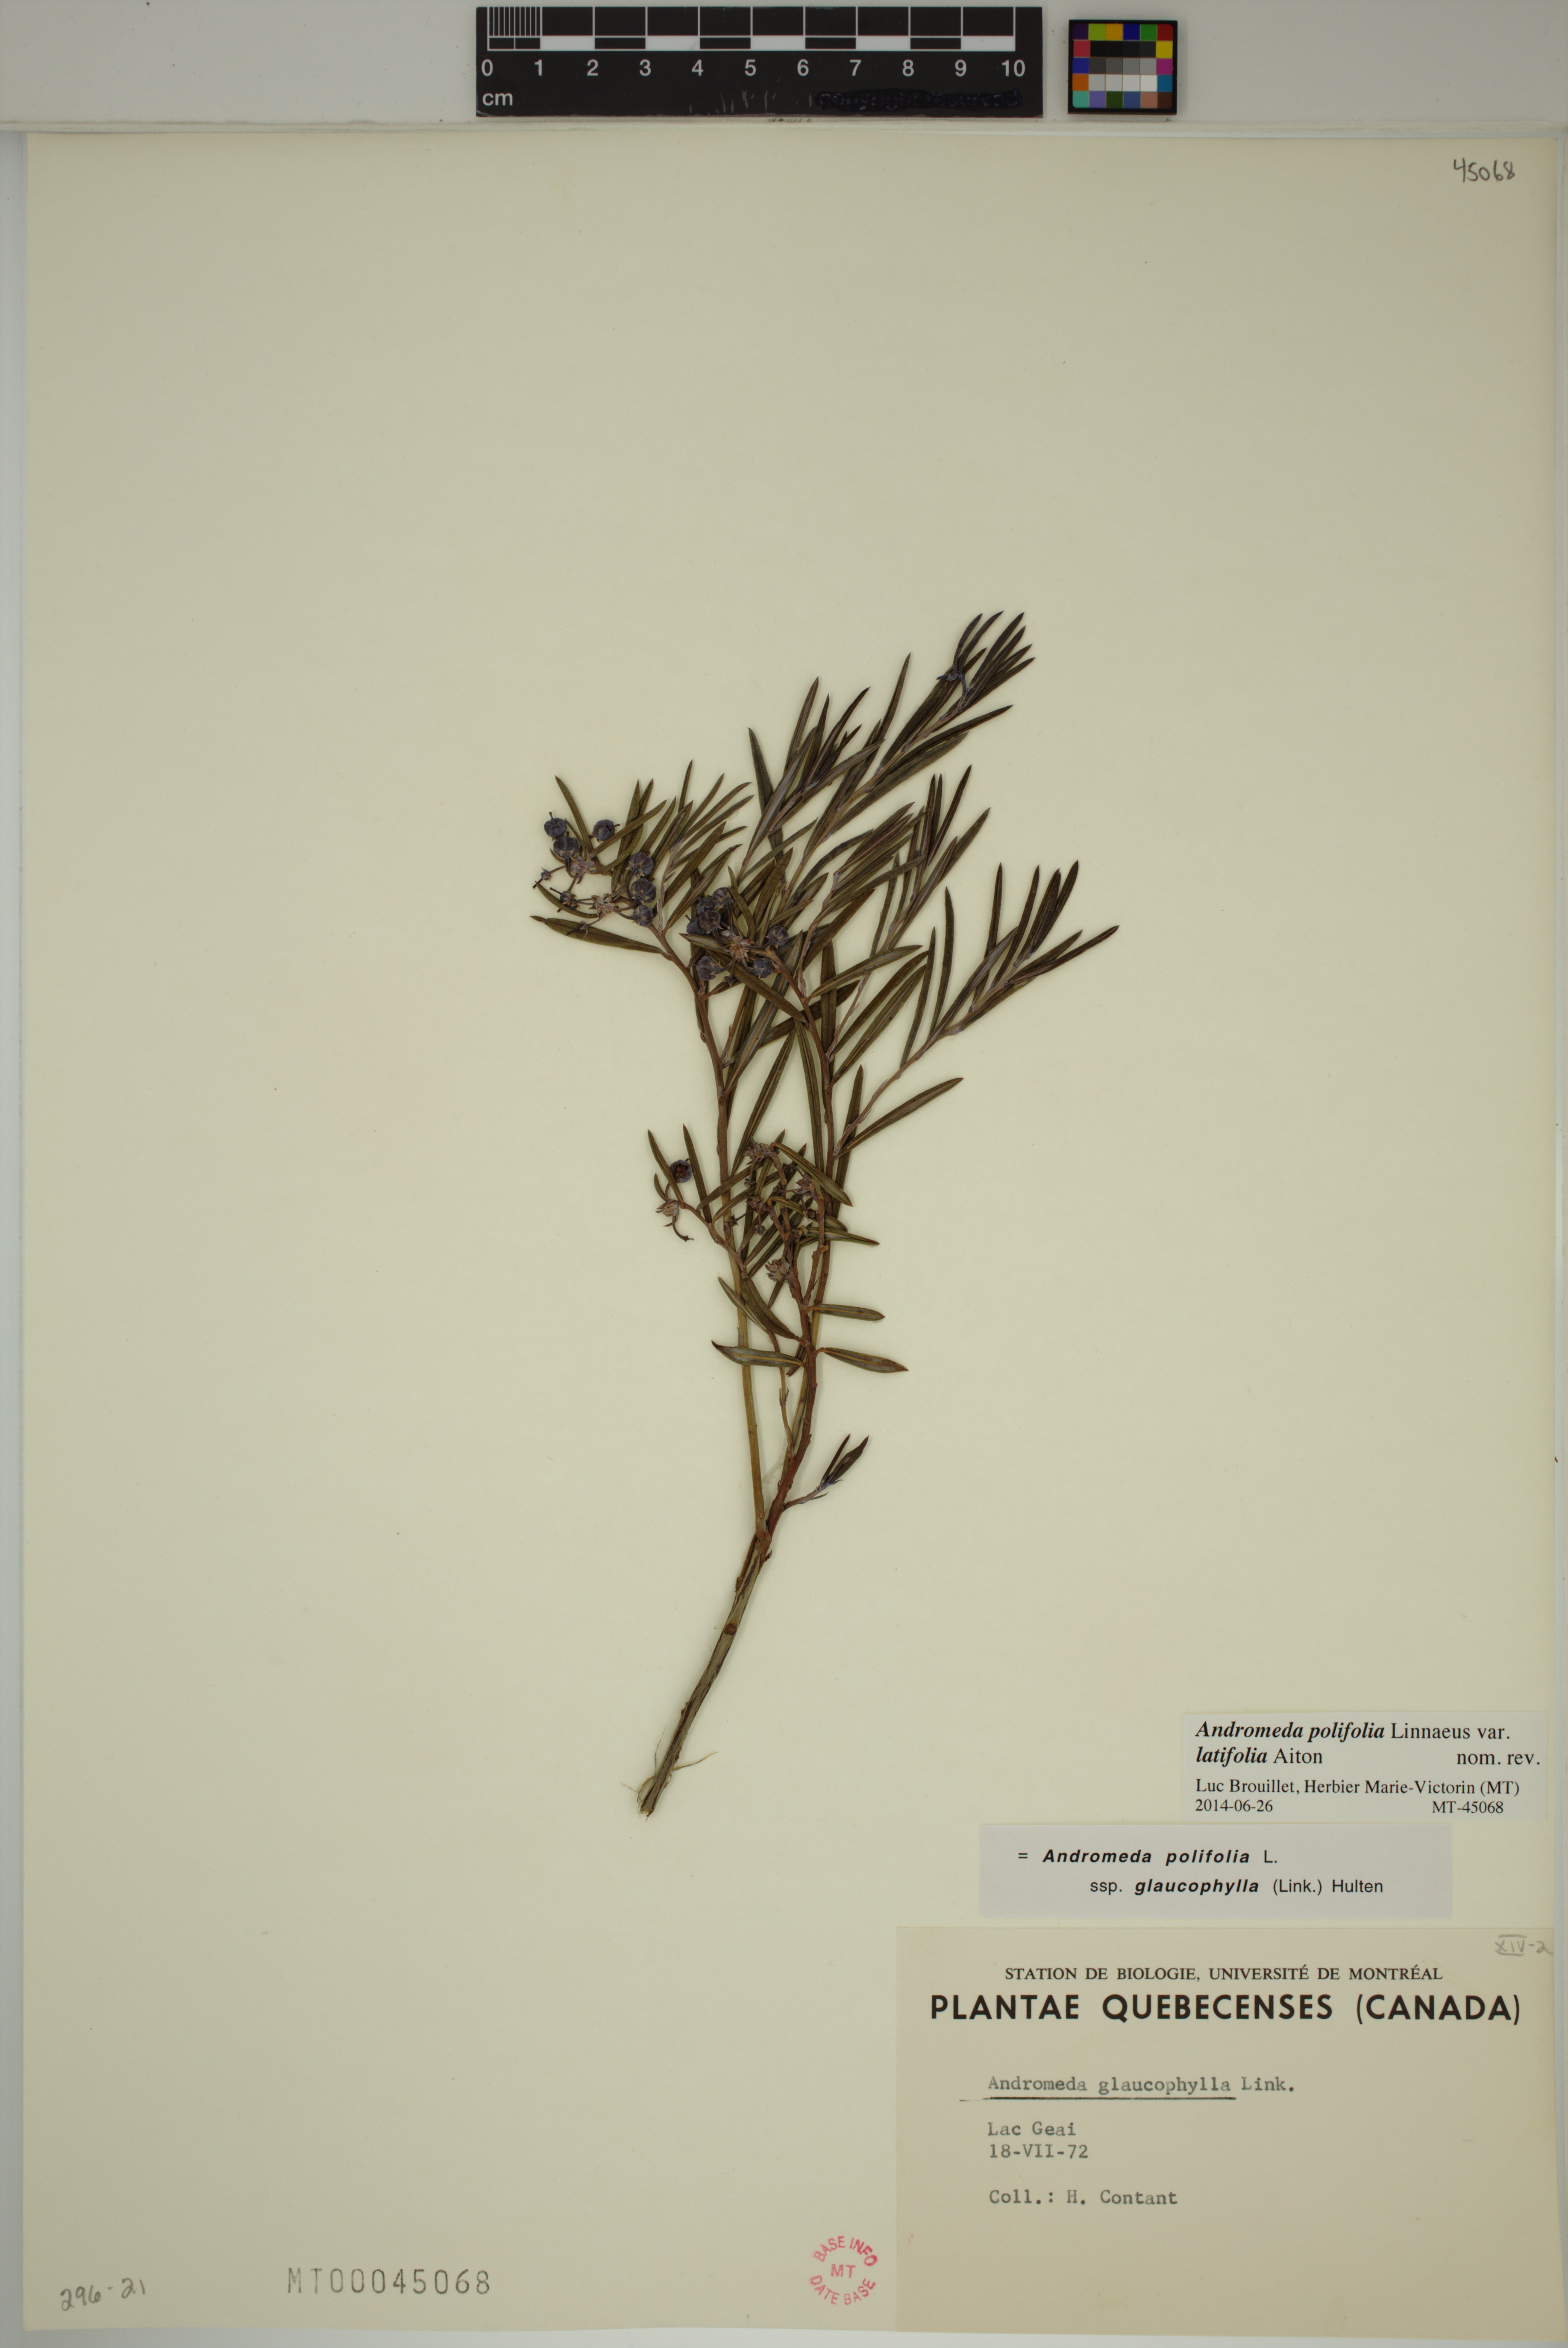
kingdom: Plantae
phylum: Tracheophyta
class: Magnoliopsida
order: Ericales
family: Ericaceae
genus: Andromeda
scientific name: Andromeda polifolia
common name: Bog-rosemary
